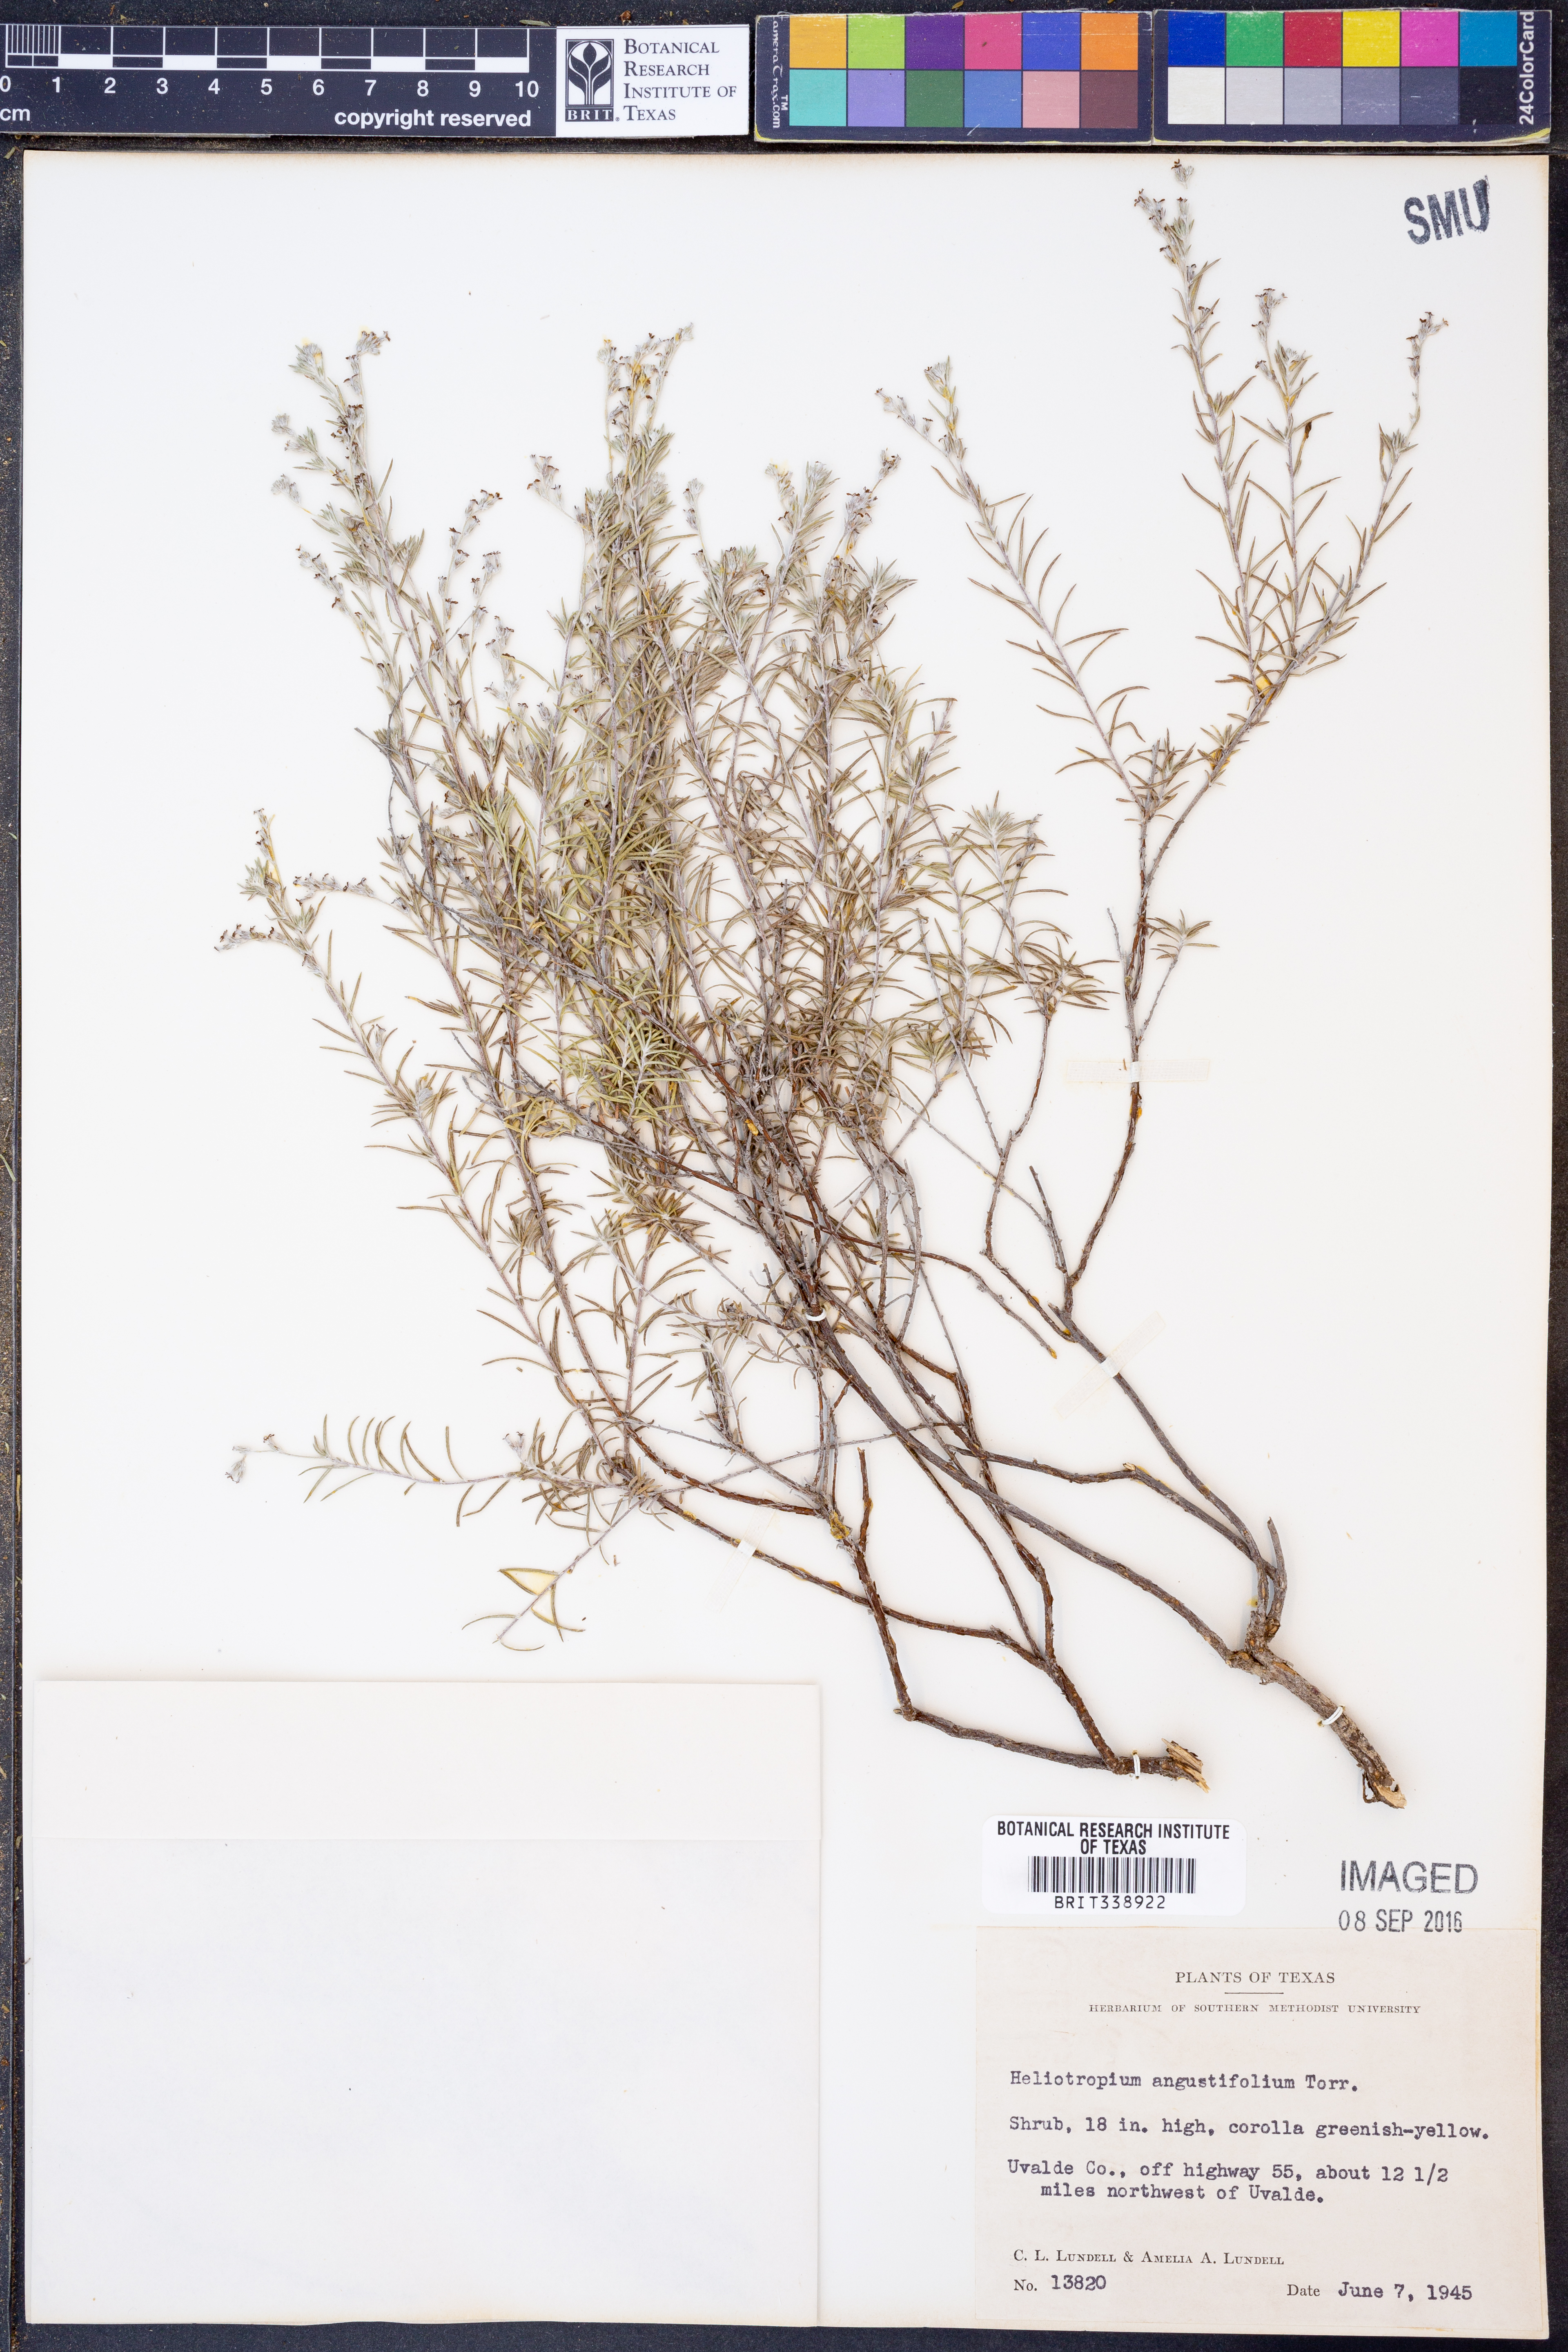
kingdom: Plantae
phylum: Tracheophyta
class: Magnoliopsida
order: Boraginales
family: Heliotropiaceae
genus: Euploca
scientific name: Euploca torreyi
